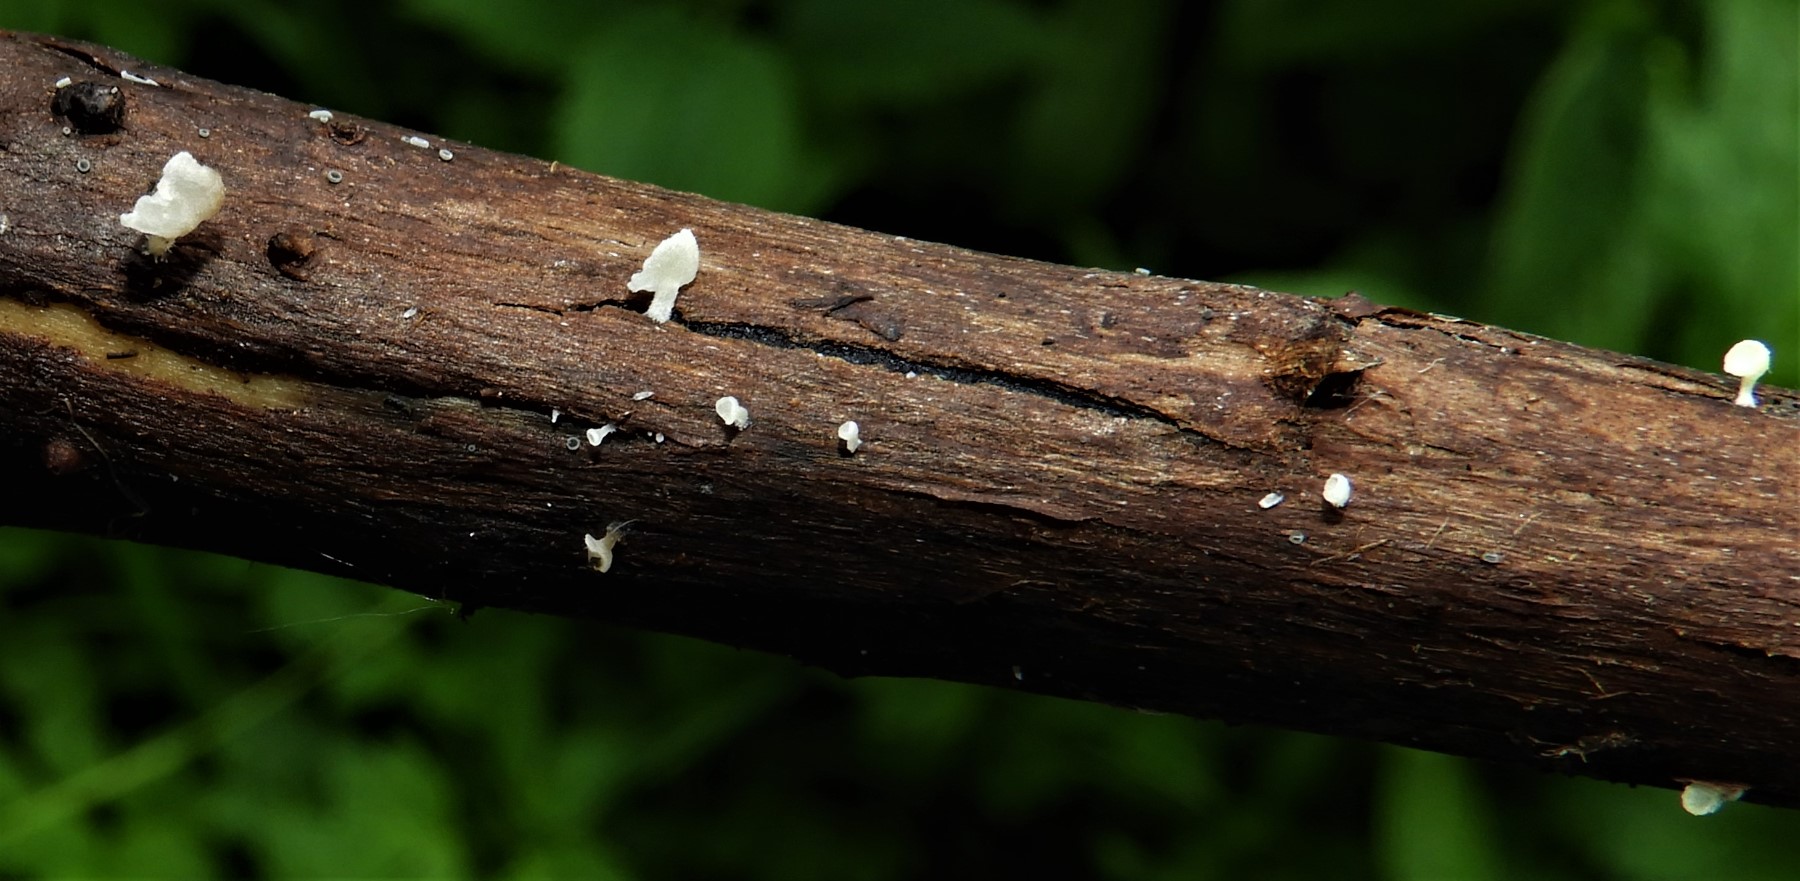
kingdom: Fungi
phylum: Basidiomycota
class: Agaricomycetes
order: Agaricales
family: Marasmiaceae
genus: Calyptella
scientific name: Calyptella capula
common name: hvidlig nældehue
